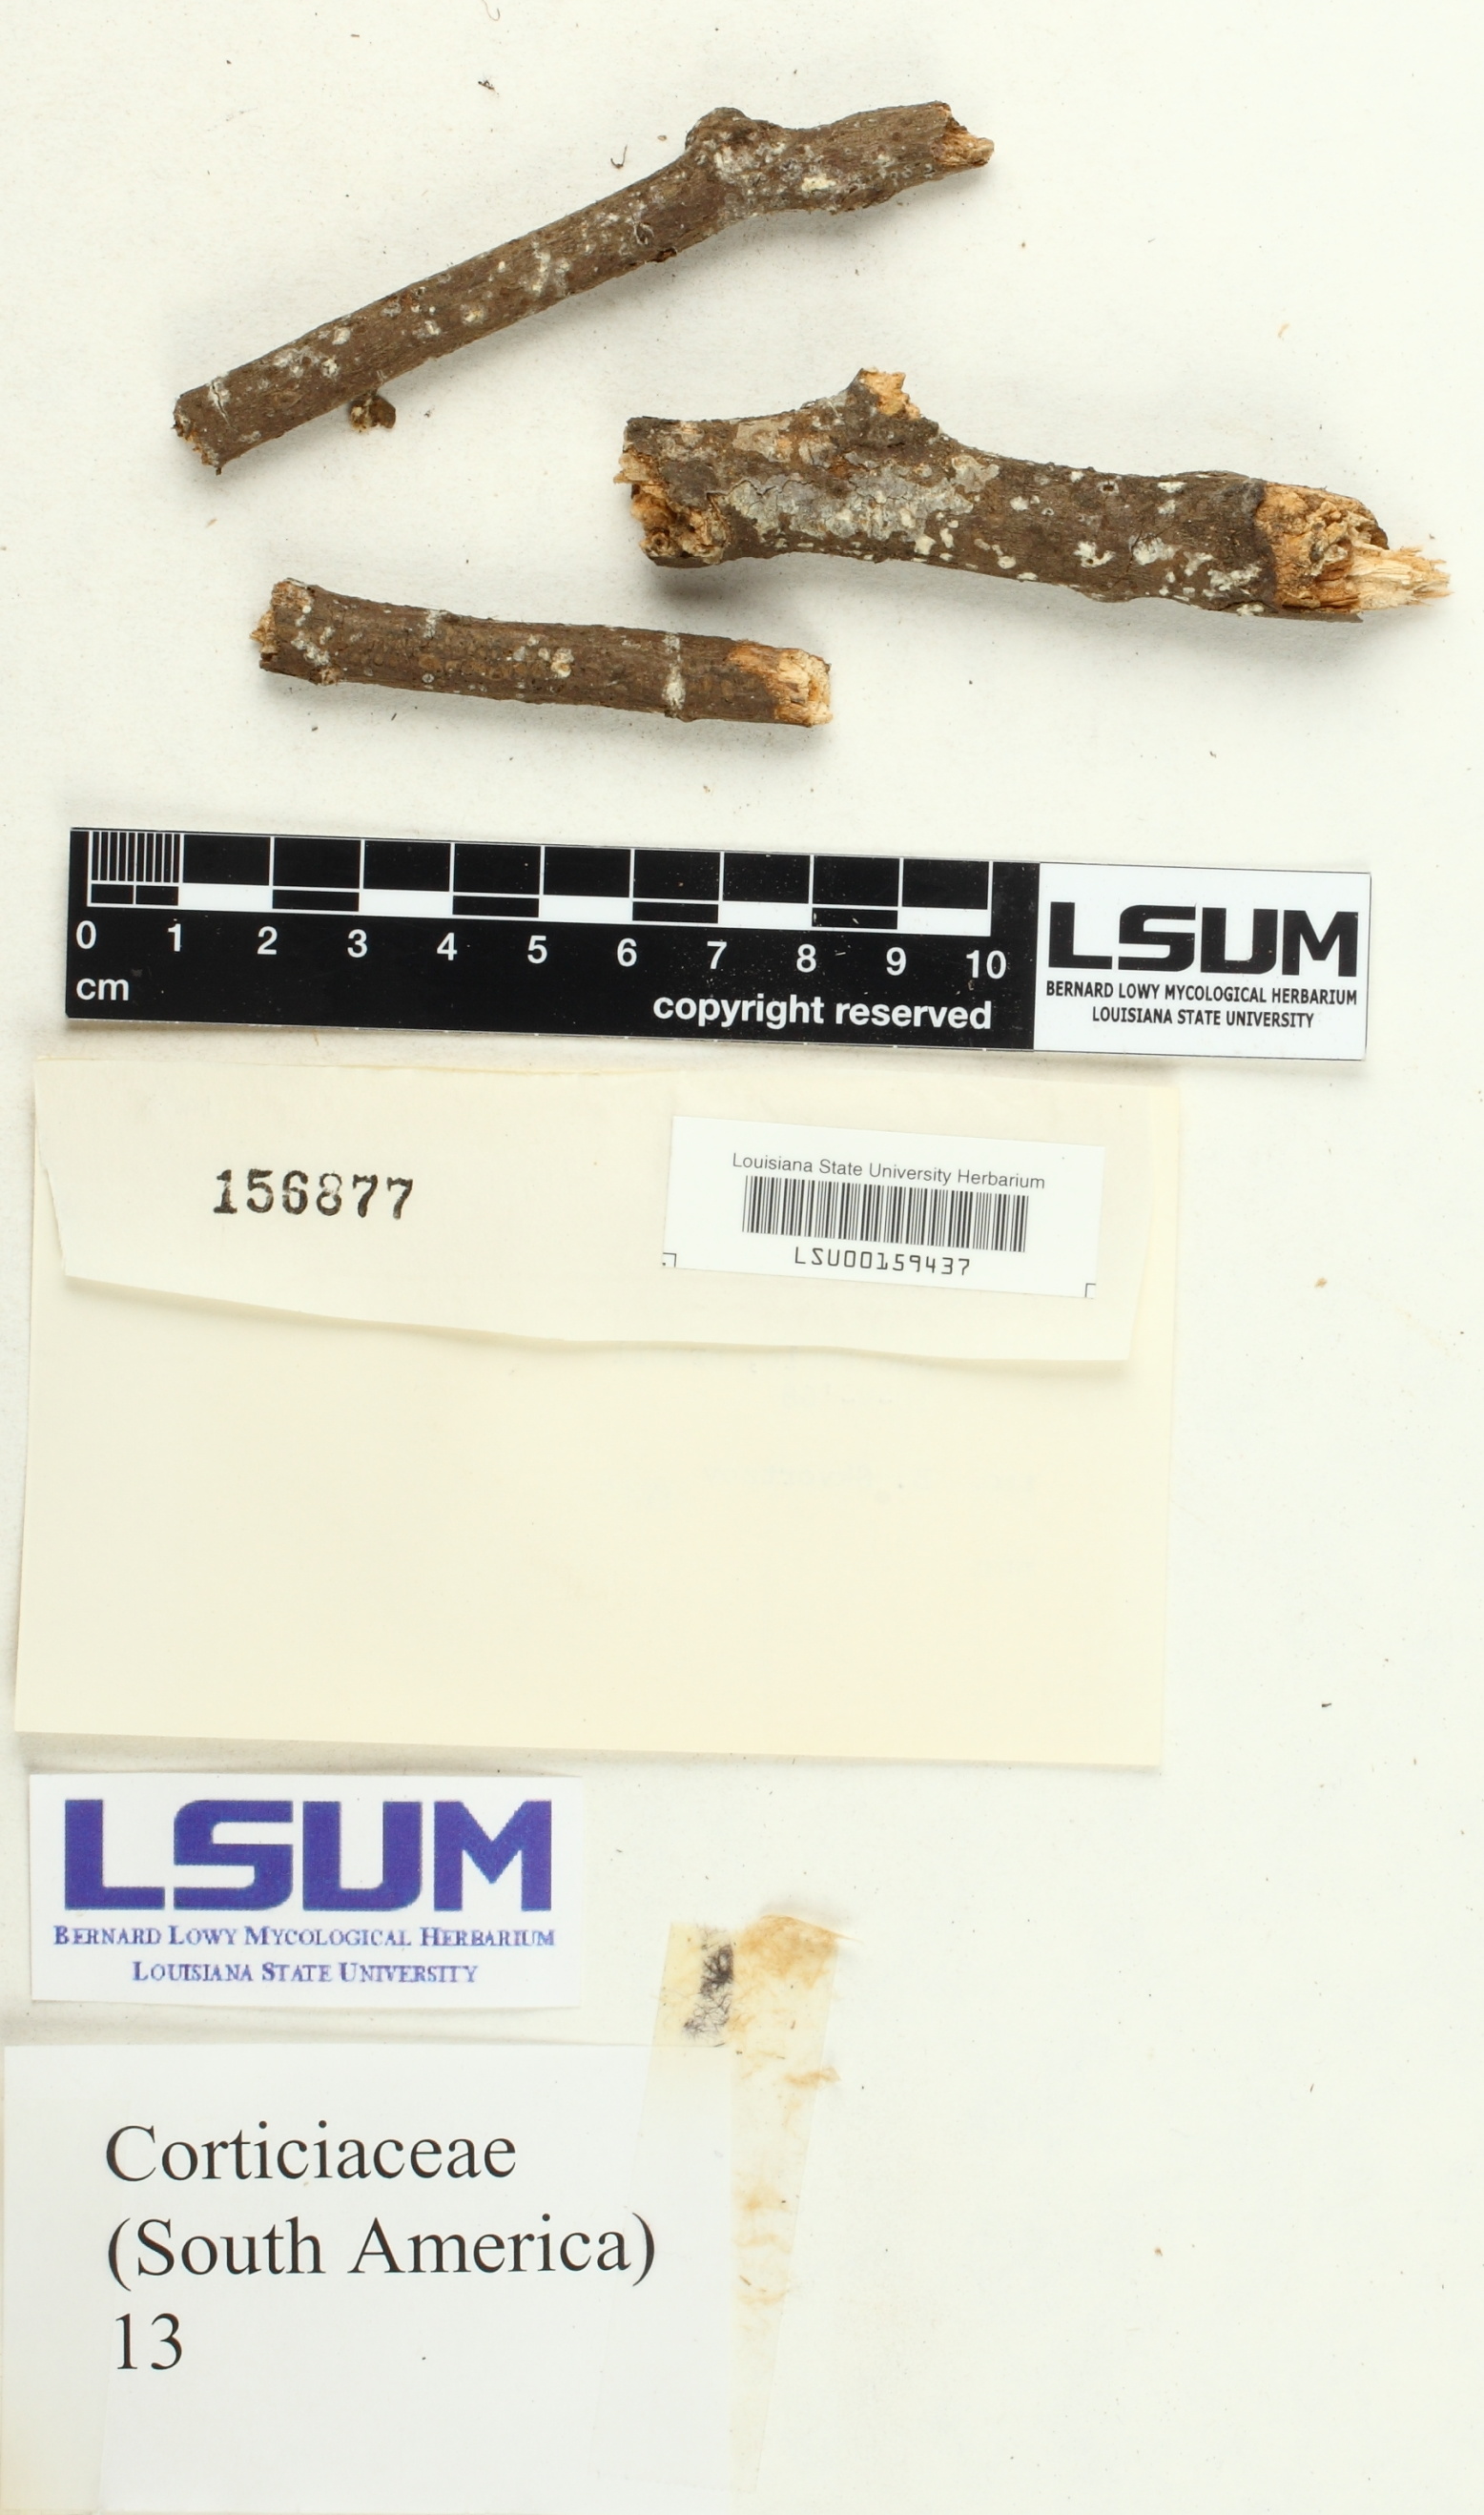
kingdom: Fungi
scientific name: Fungi
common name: Fungi
